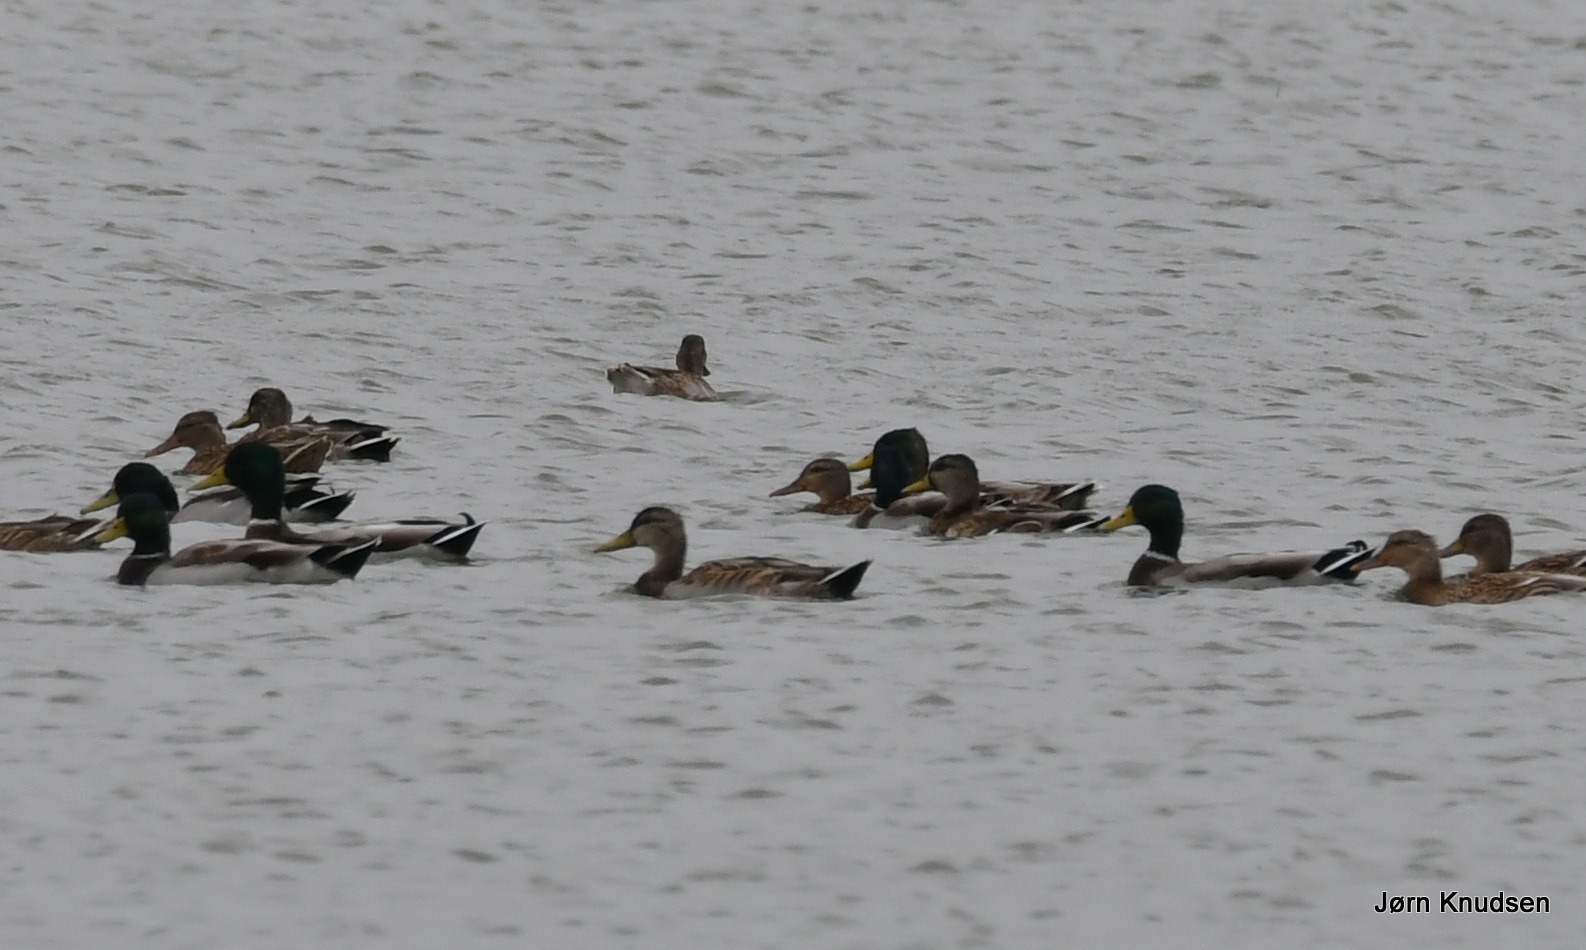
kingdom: Animalia
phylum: Chordata
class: Aves
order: Anseriformes
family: Anatidae
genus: Anas
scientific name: Anas platyrhynchos
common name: Gråand
